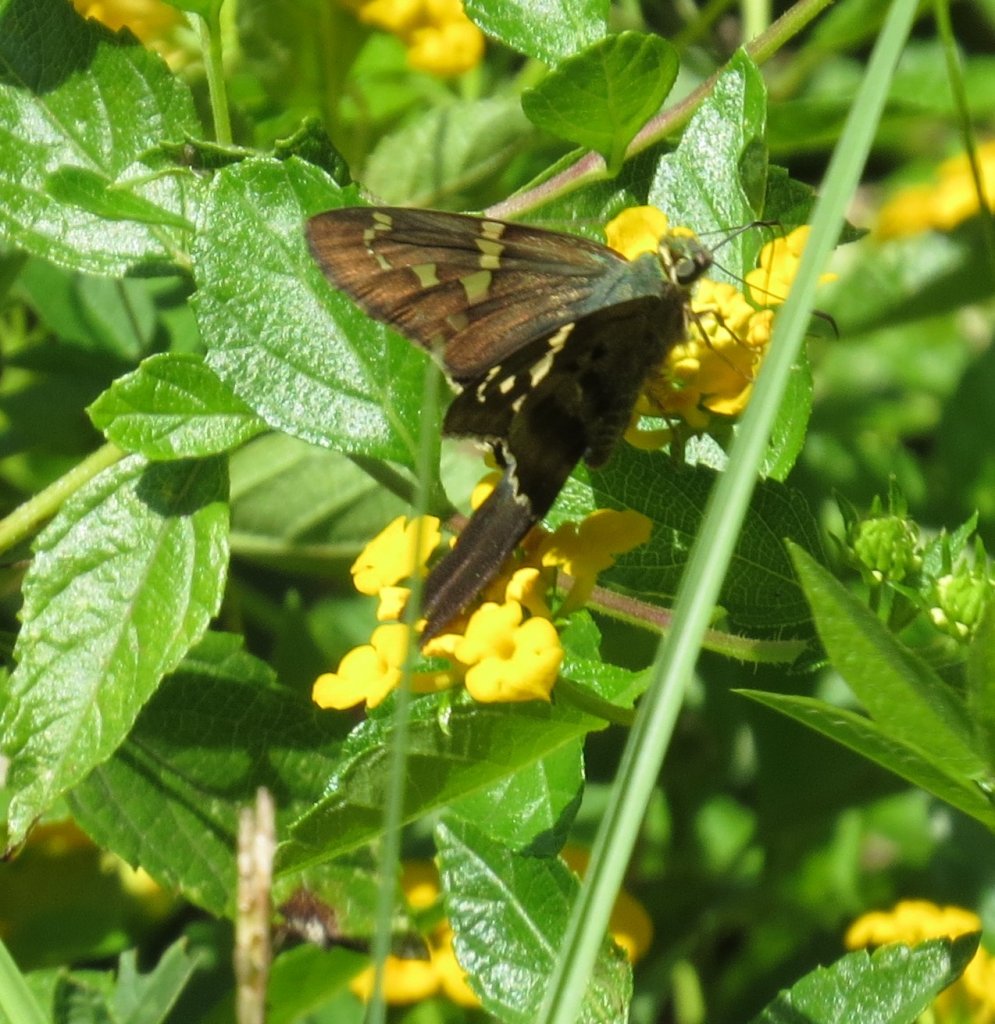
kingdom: Animalia
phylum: Arthropoda
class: Insecta
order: Lepidoptera
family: Hesperiidae
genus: Urbanus
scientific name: Urbanus proteus
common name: Long-tailed Skipper
